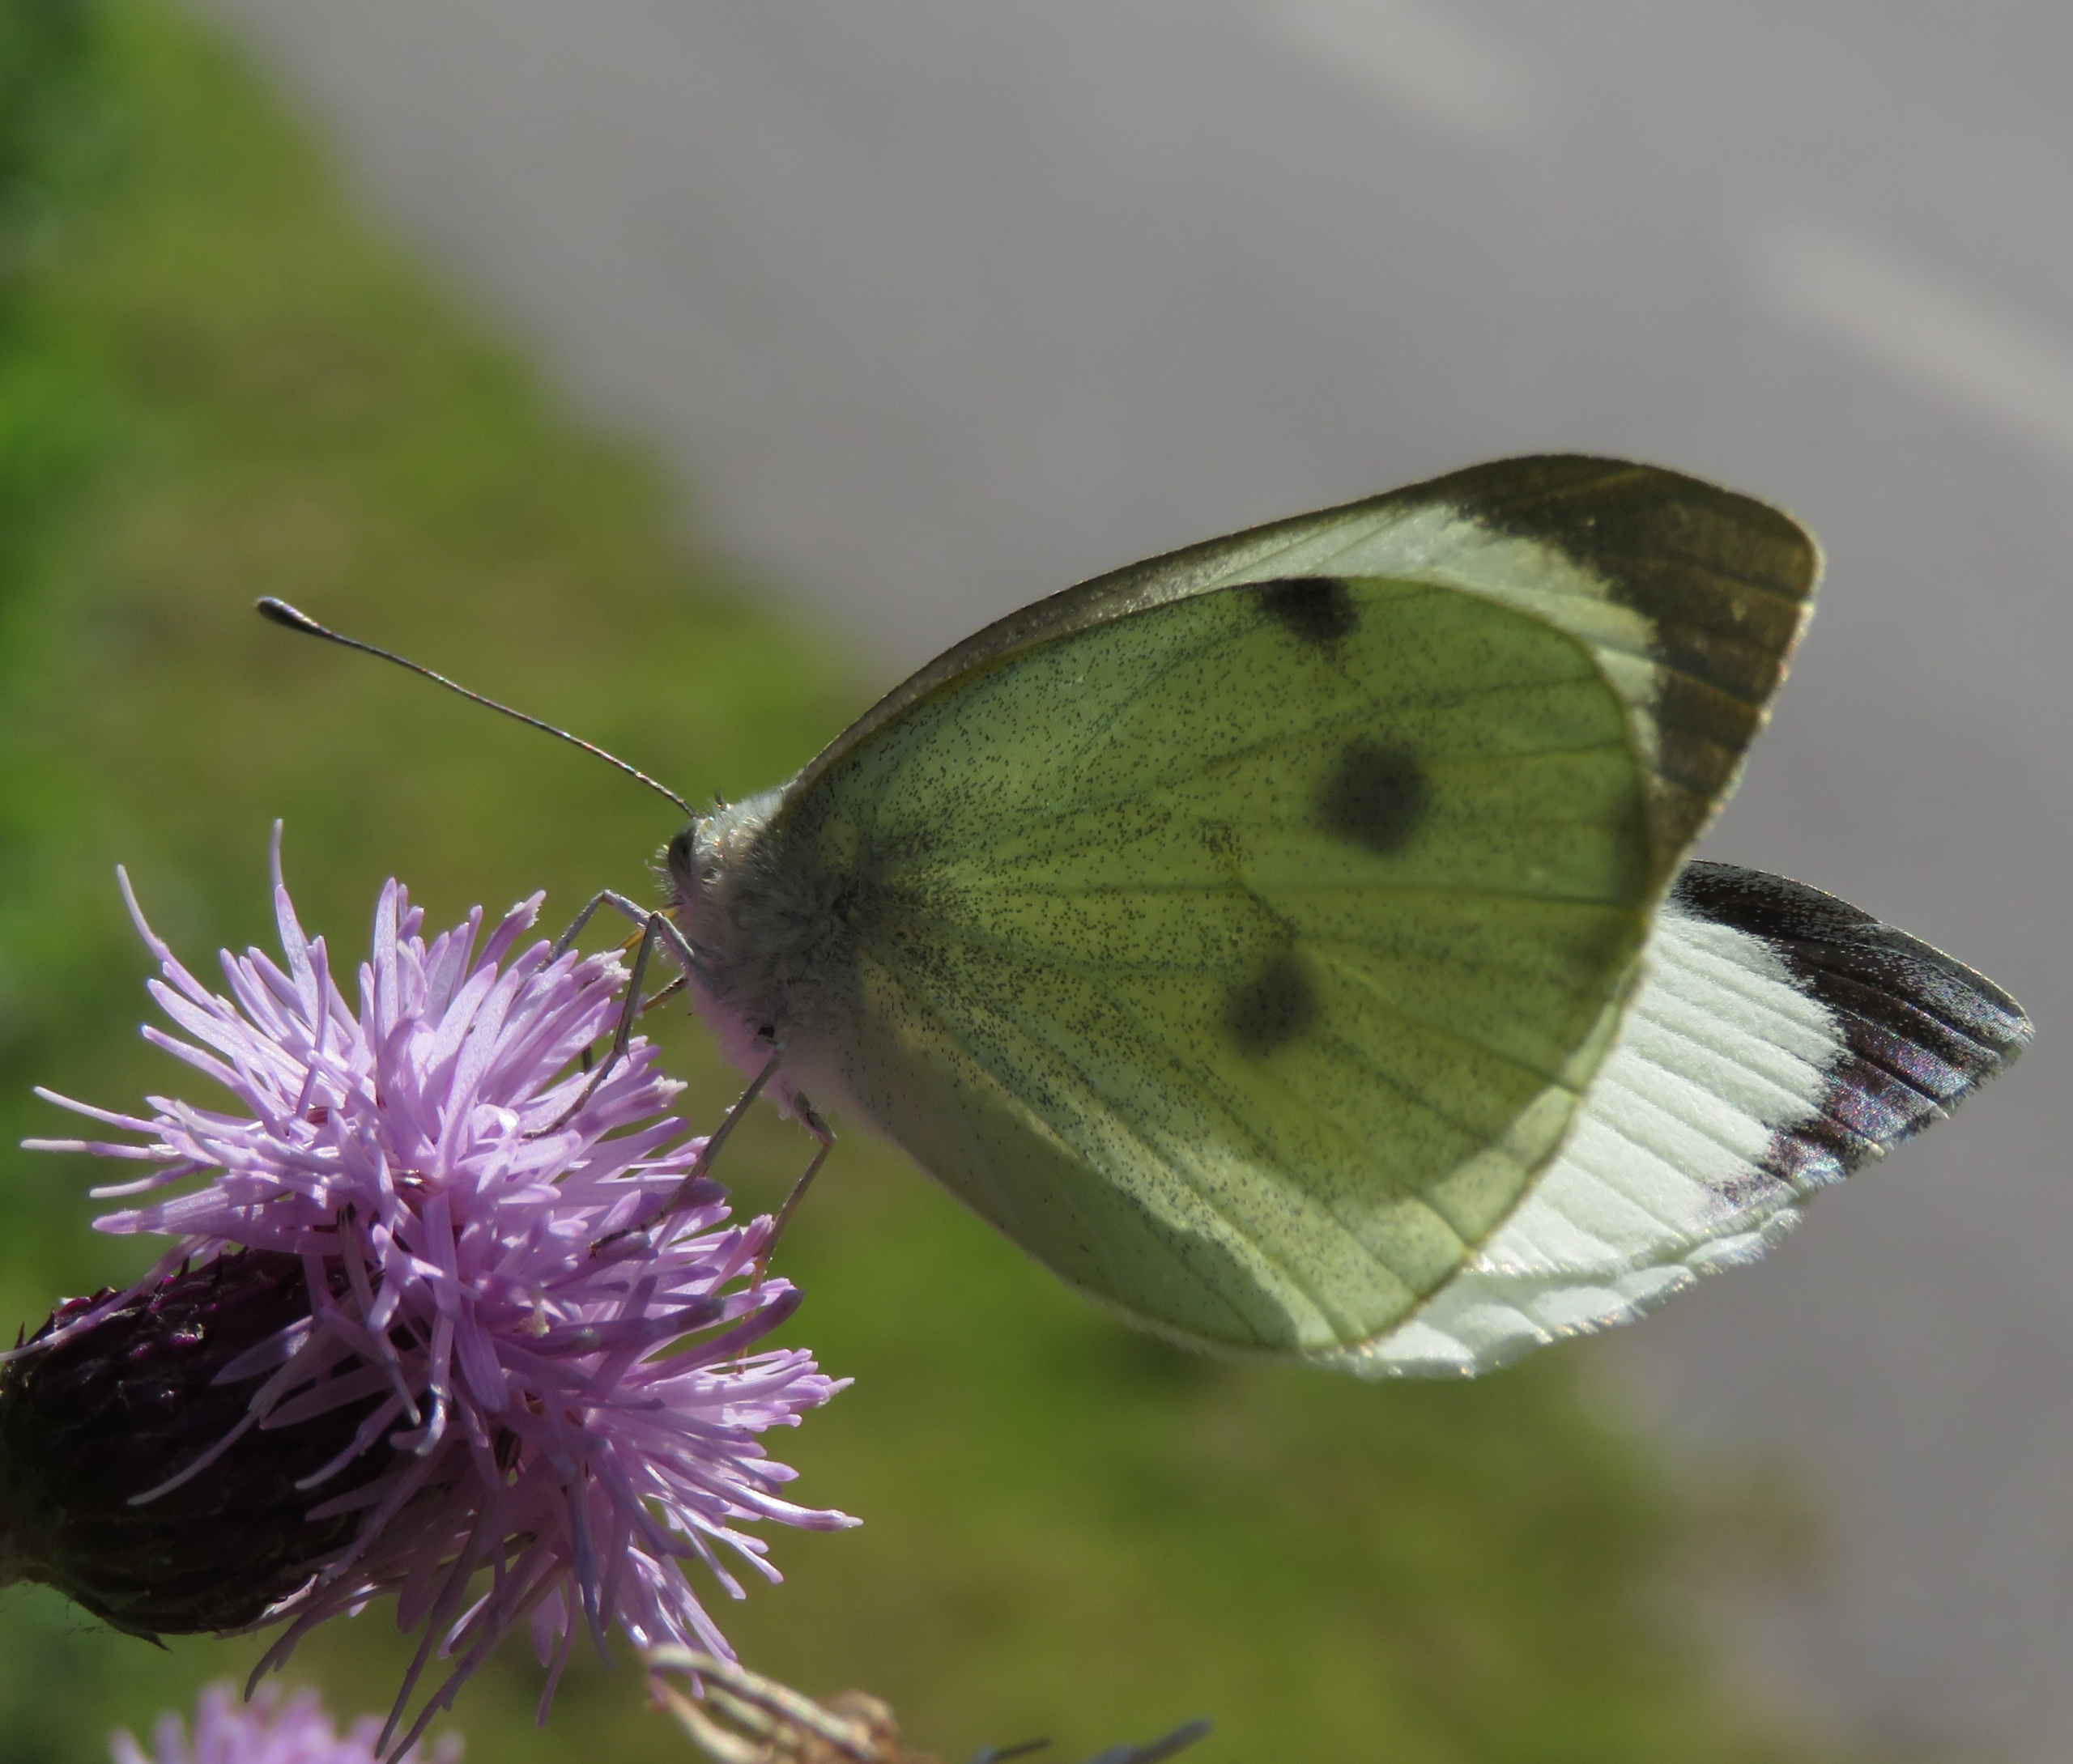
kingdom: Animalia
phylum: Arthropoda
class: Insecta
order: Lepidoptera
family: Pieridae
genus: Pieris
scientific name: Pieris brassicae
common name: Stor kålsommerfugl
